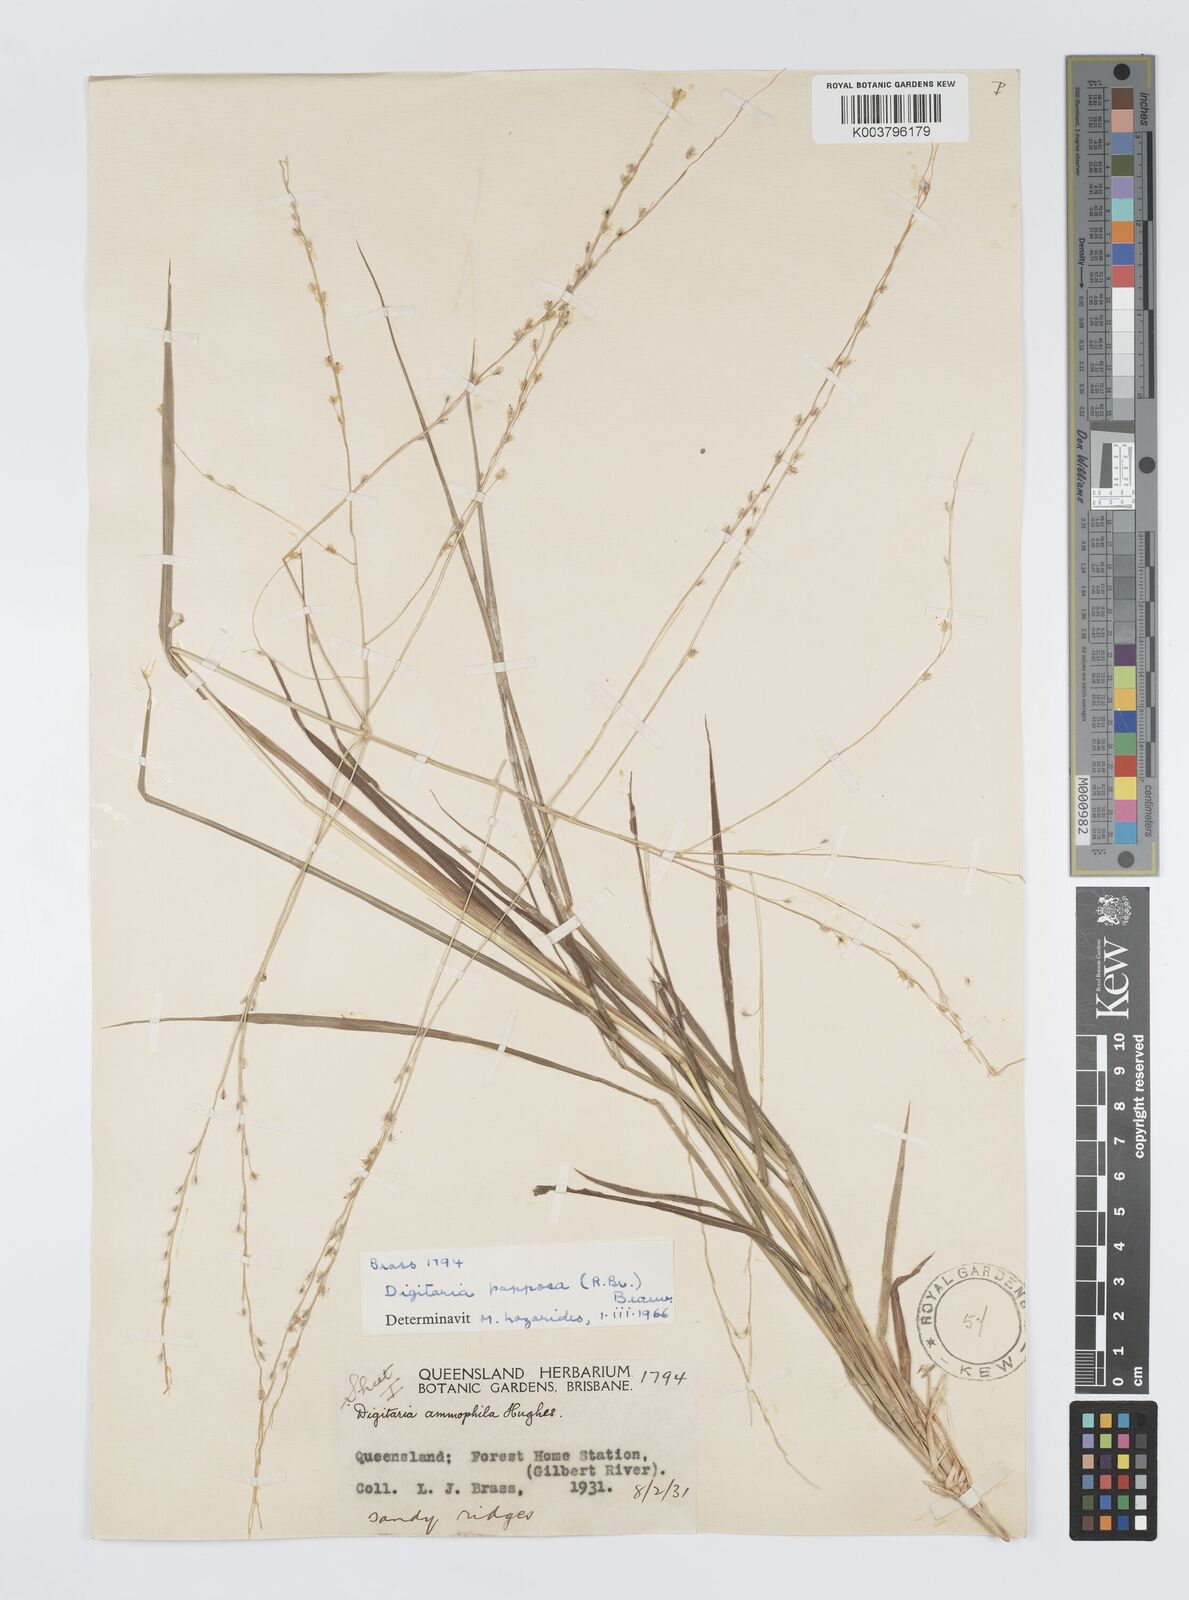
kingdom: Plantae
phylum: Tracheophyta
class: Liliopsida
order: Poales
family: Poaceae
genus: Digitaria
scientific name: Digitaria papposa
